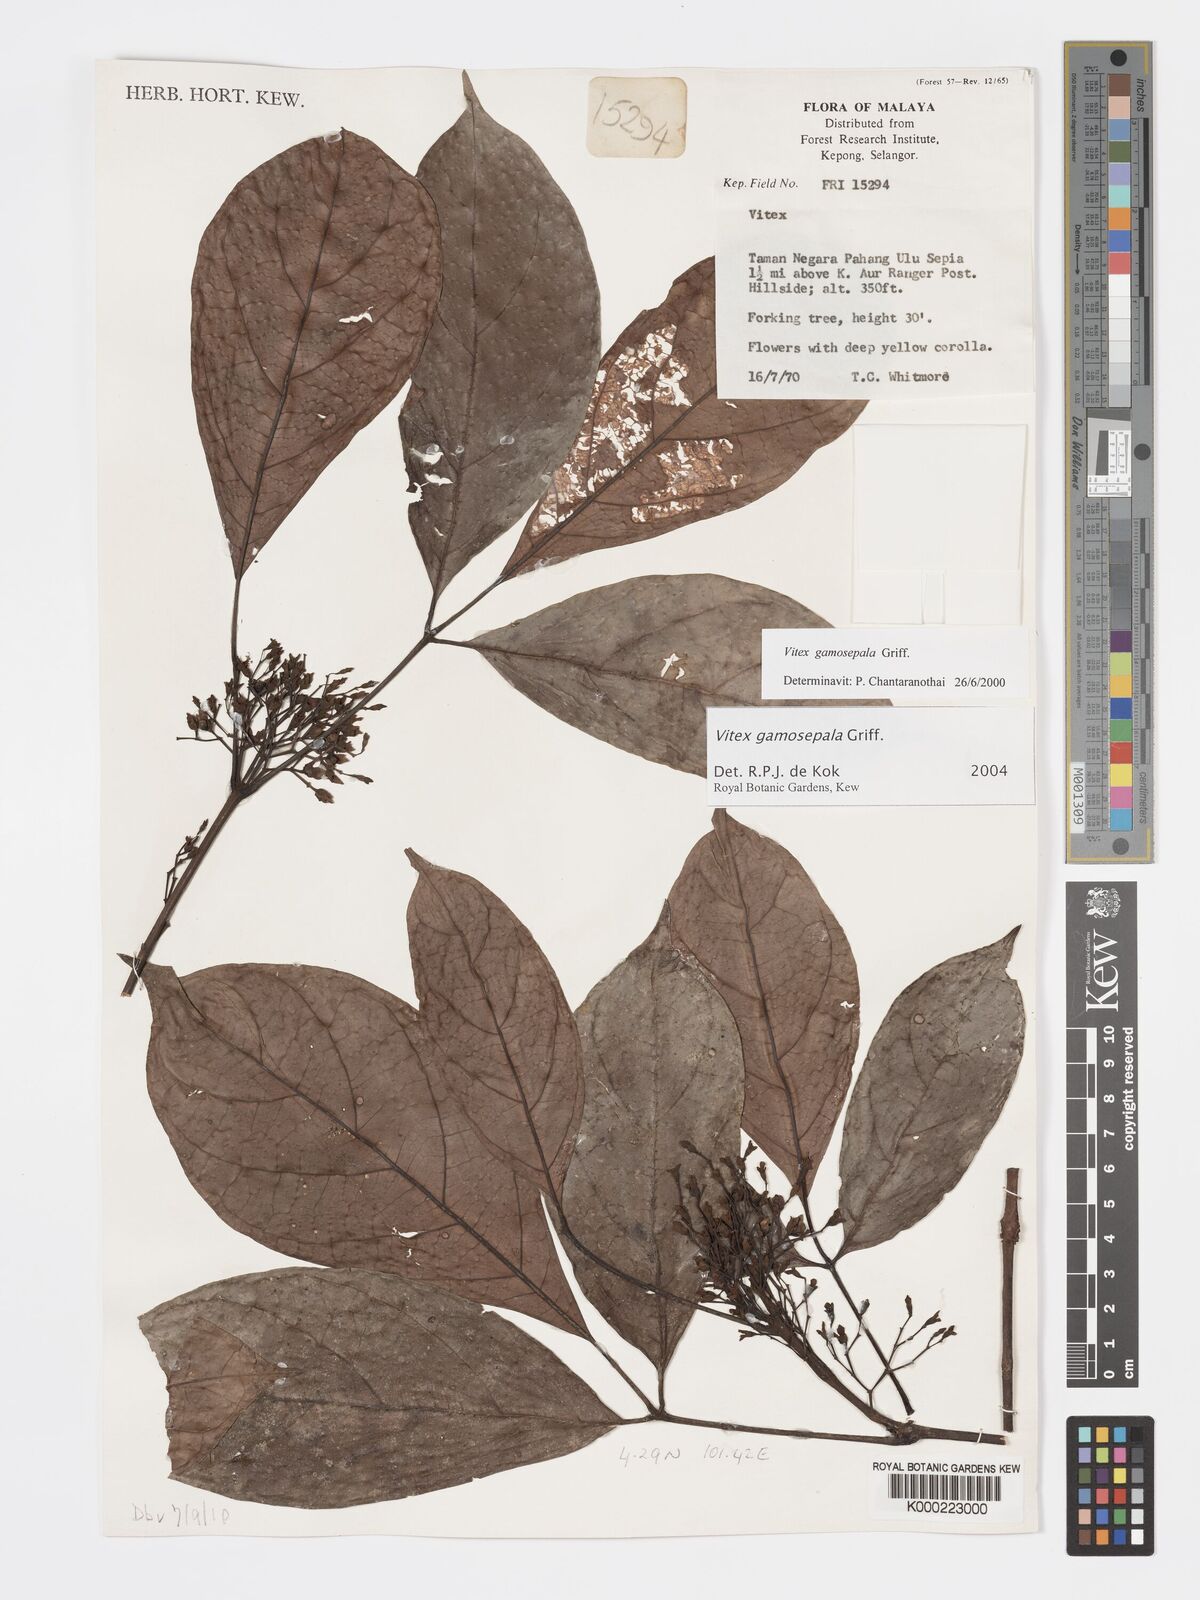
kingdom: Plantae
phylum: Tracheophyta
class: Magnoliopsida
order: Lamiales
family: Lamiaceae
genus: Vitex
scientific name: Vitex gamosepala
